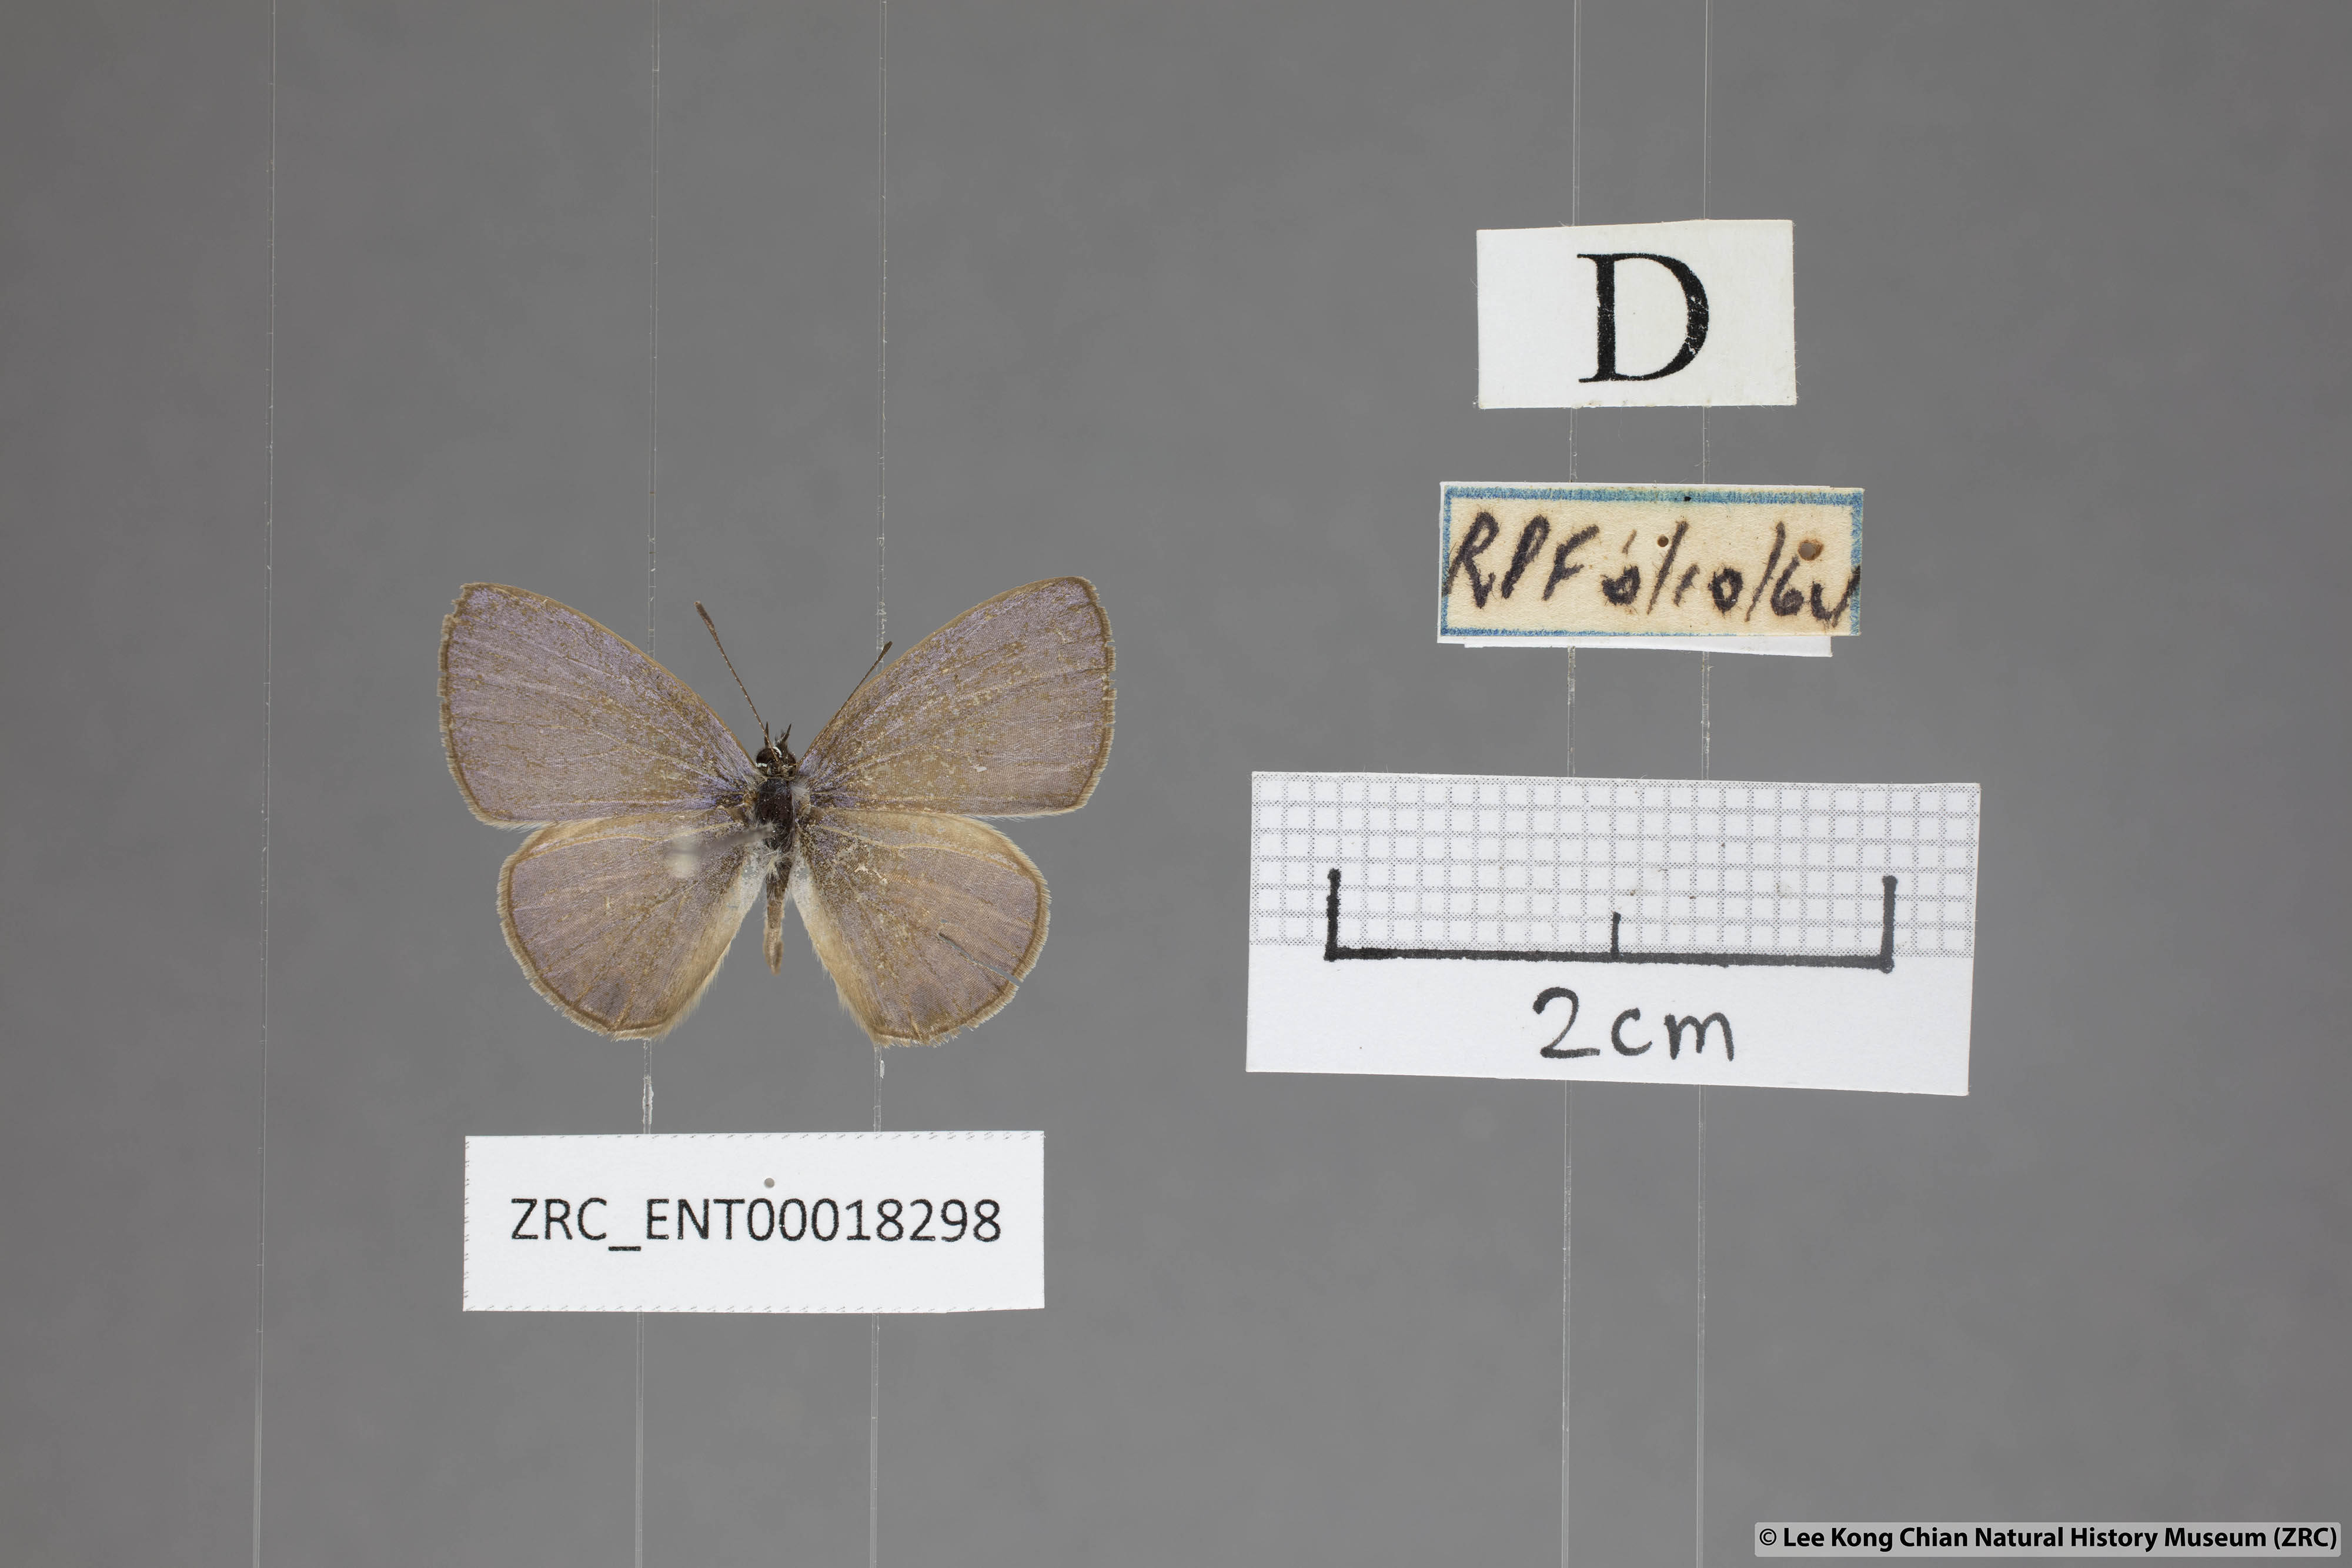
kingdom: Animalia
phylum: Arthropoda
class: Insecta
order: Lepidoptera
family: Lycaenidae
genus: Nacaduba
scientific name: Nacaduba berenice
